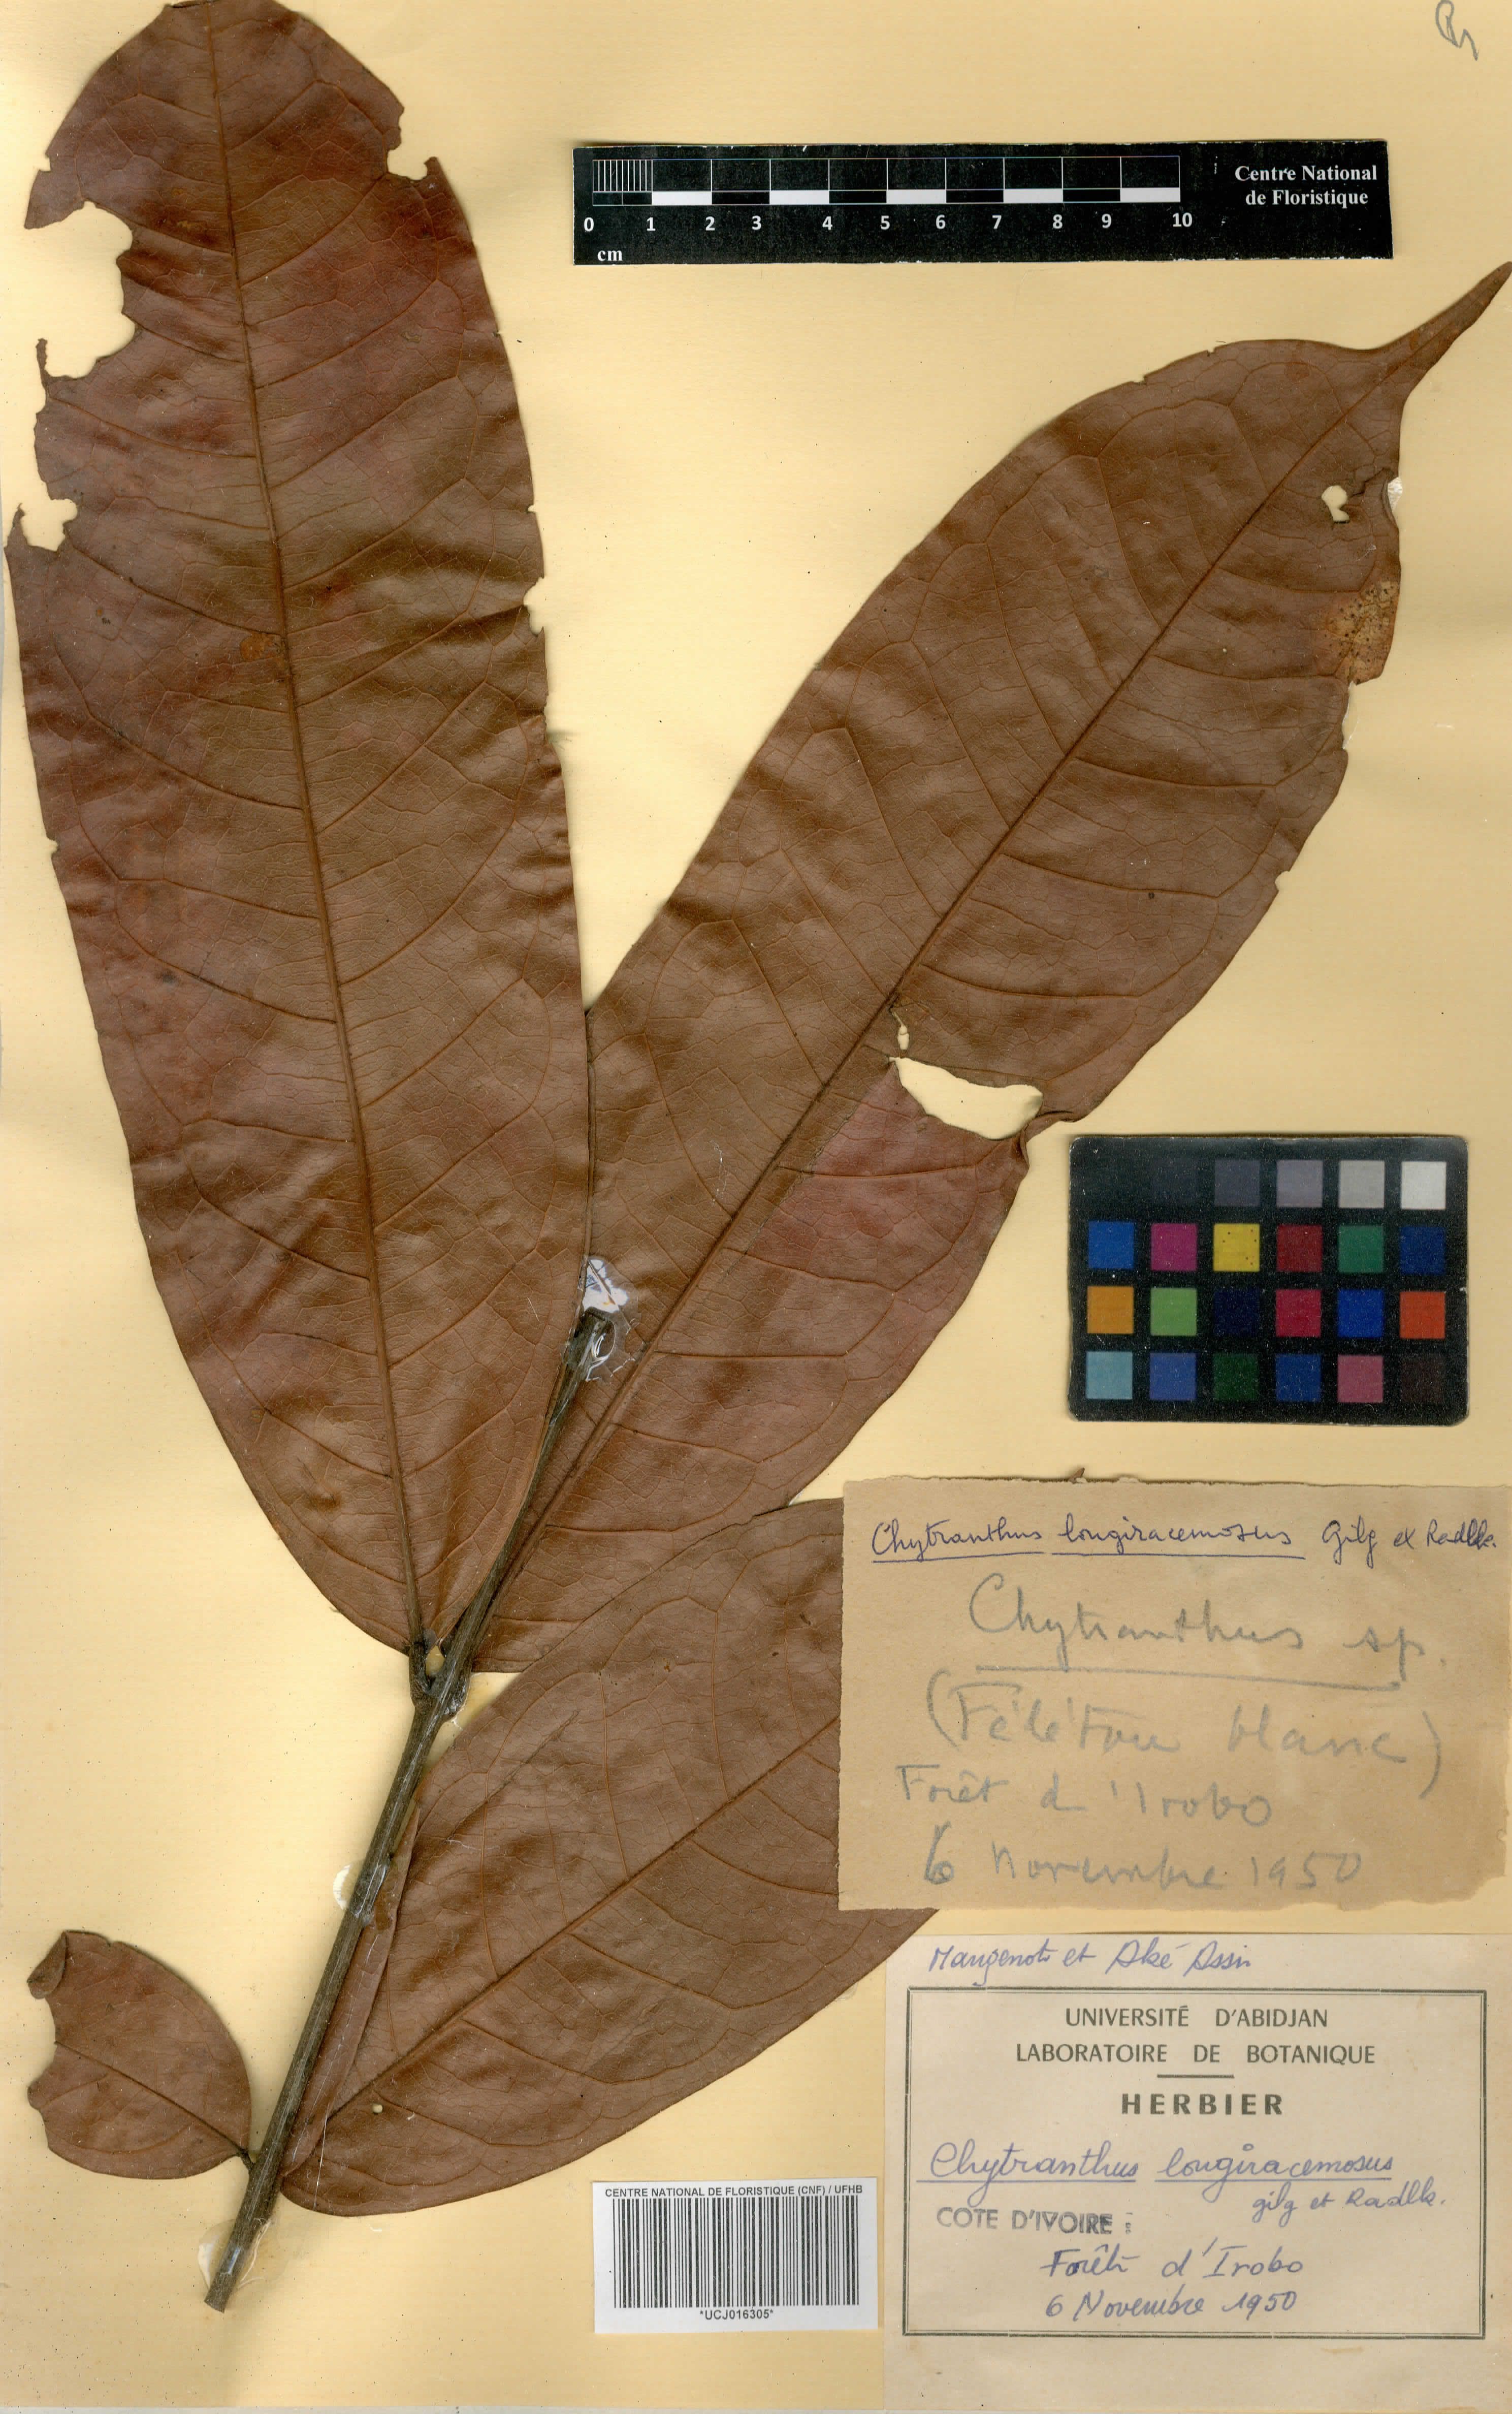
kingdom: Plantae
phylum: Tracheophyta
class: Magnoliopsida
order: Sapindales
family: Sapindaceae
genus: Chytranthus
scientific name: Chytranthus carneus
